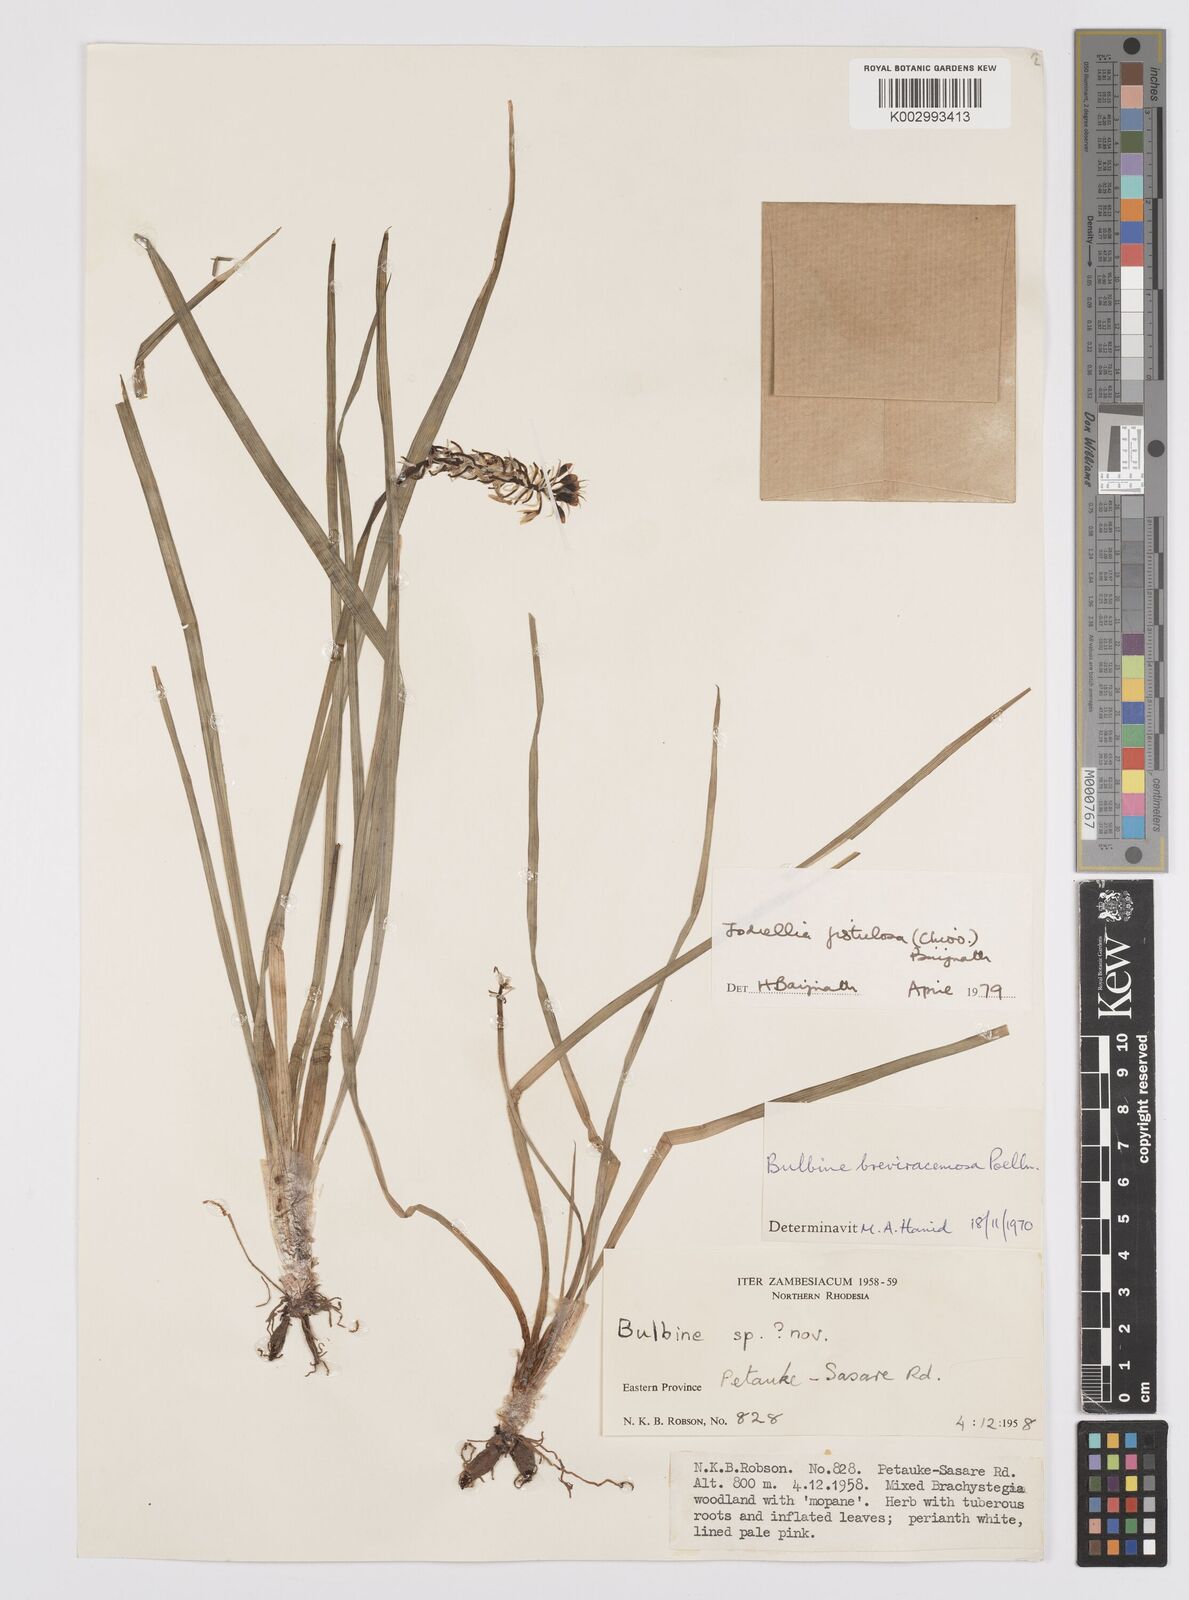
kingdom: Plantae
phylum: Tracheophyta
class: Liliopsida
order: Asparagales
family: Asphodelaceae
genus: Bulbine
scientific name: Bulbine fistulosa
